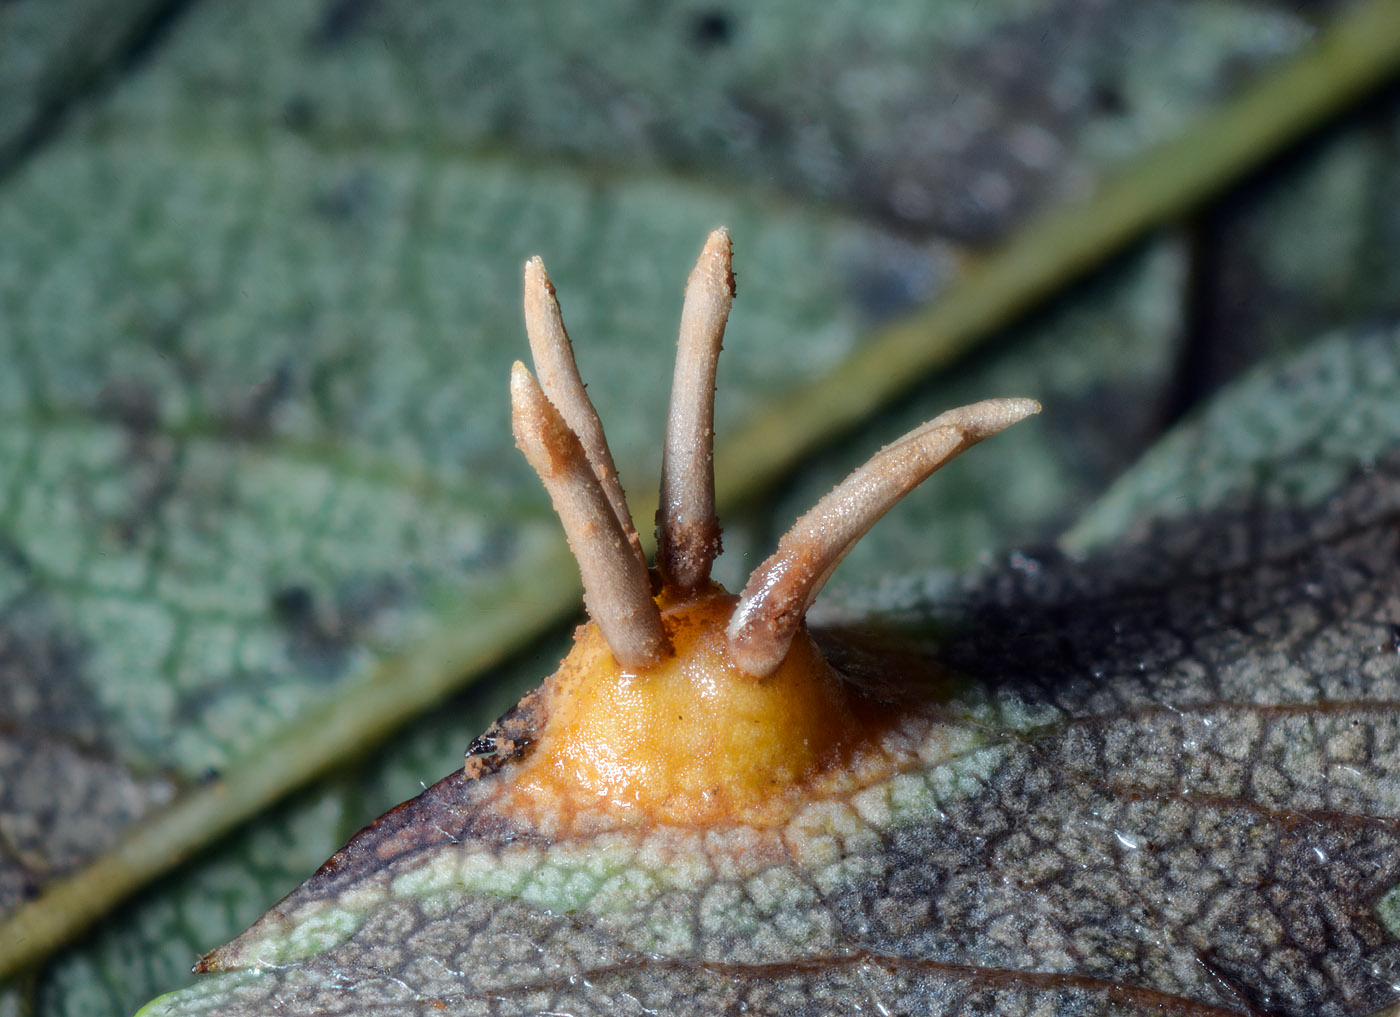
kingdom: Fungi
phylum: Basidiomycota
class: Pucciniomycetes
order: Pucciniales
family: Gymnosporangiaceae
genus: Gymnosporangium
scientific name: Gymnosporangium cornutum
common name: rønnehorn-bævrerust
